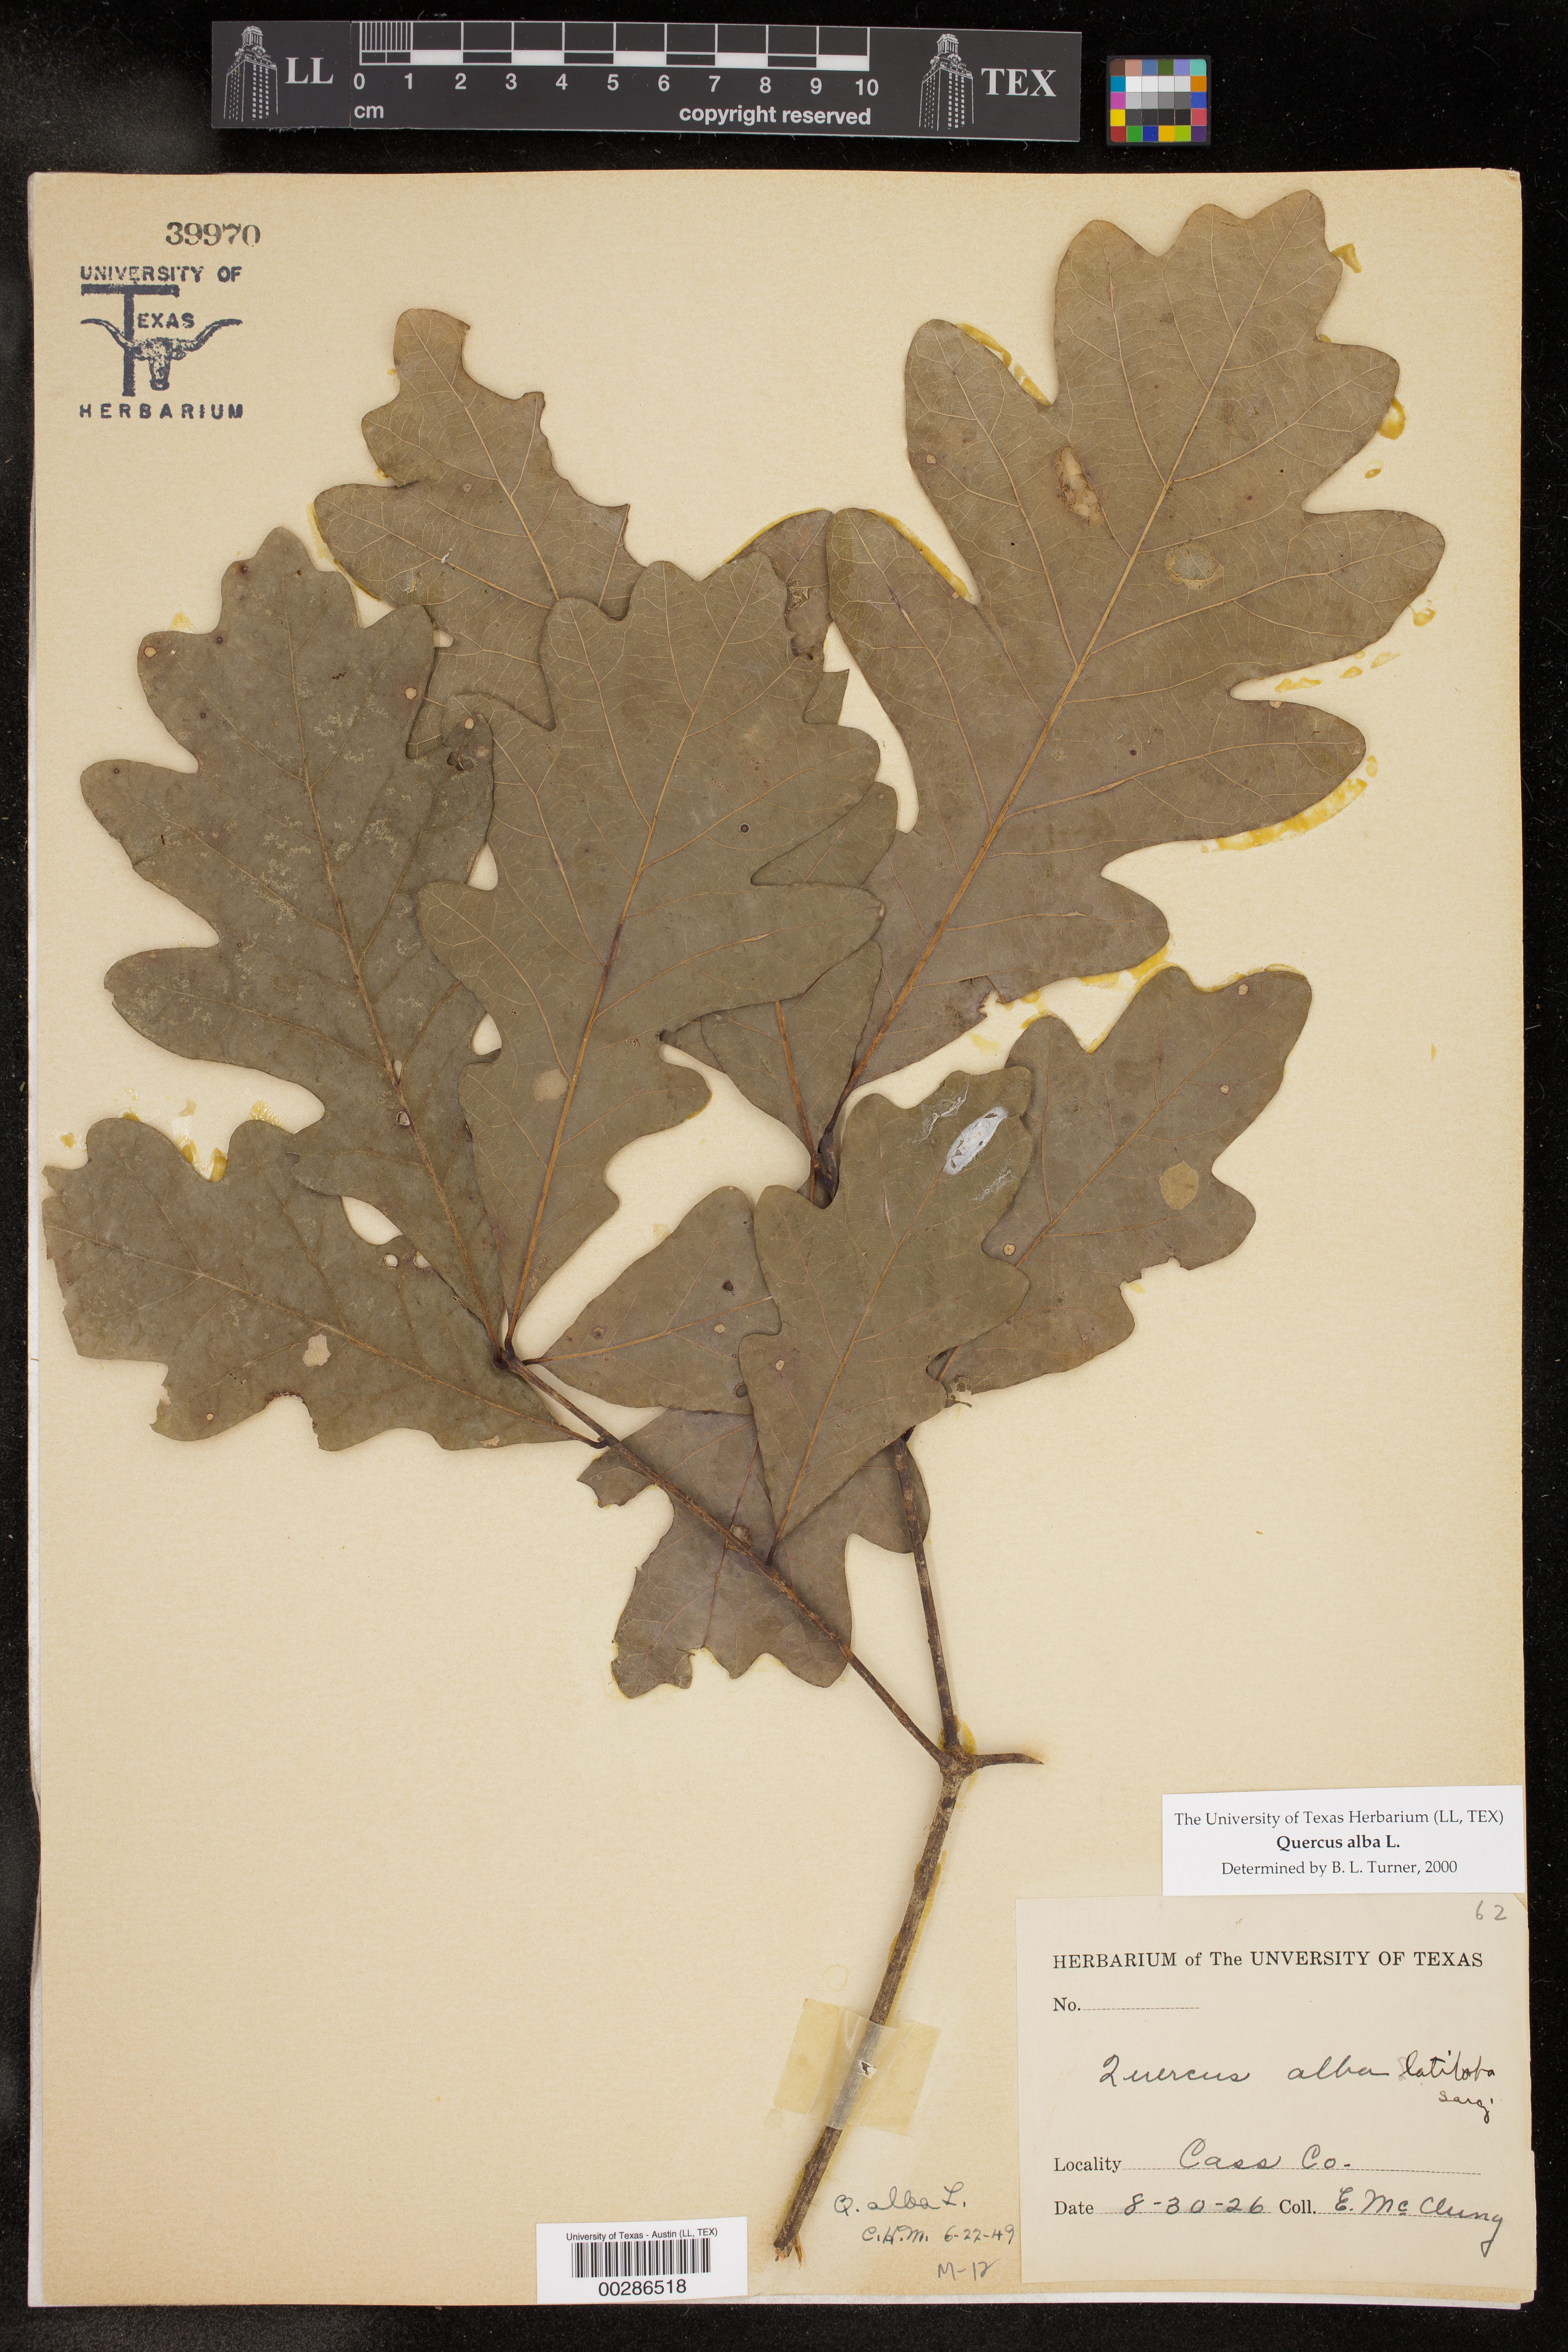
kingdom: Plantae
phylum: Tracheophyta
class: Magnoliopsida
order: Fagales
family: Fagaceae
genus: Quercus
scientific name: Quercus alba
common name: White oak
